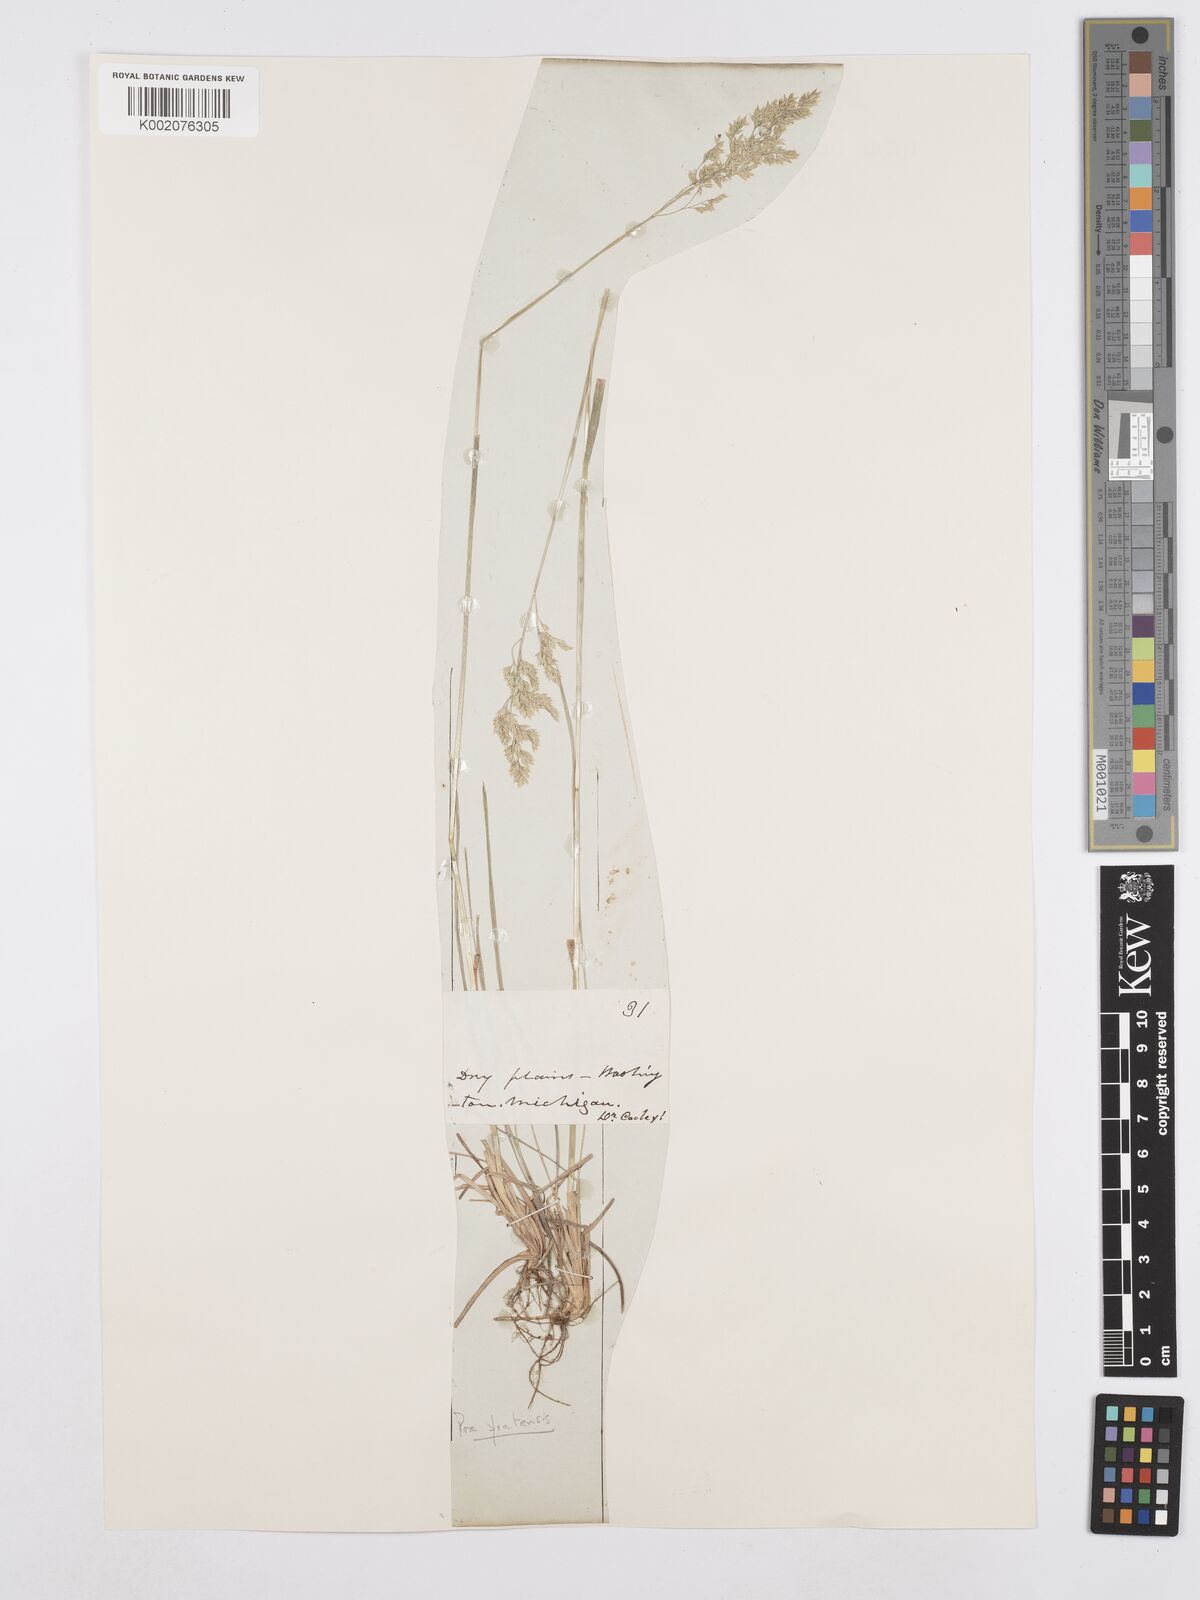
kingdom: Plantae
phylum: Tracheophyta
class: Liliopsida
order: Poales
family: Poaceae
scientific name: Poaceae
